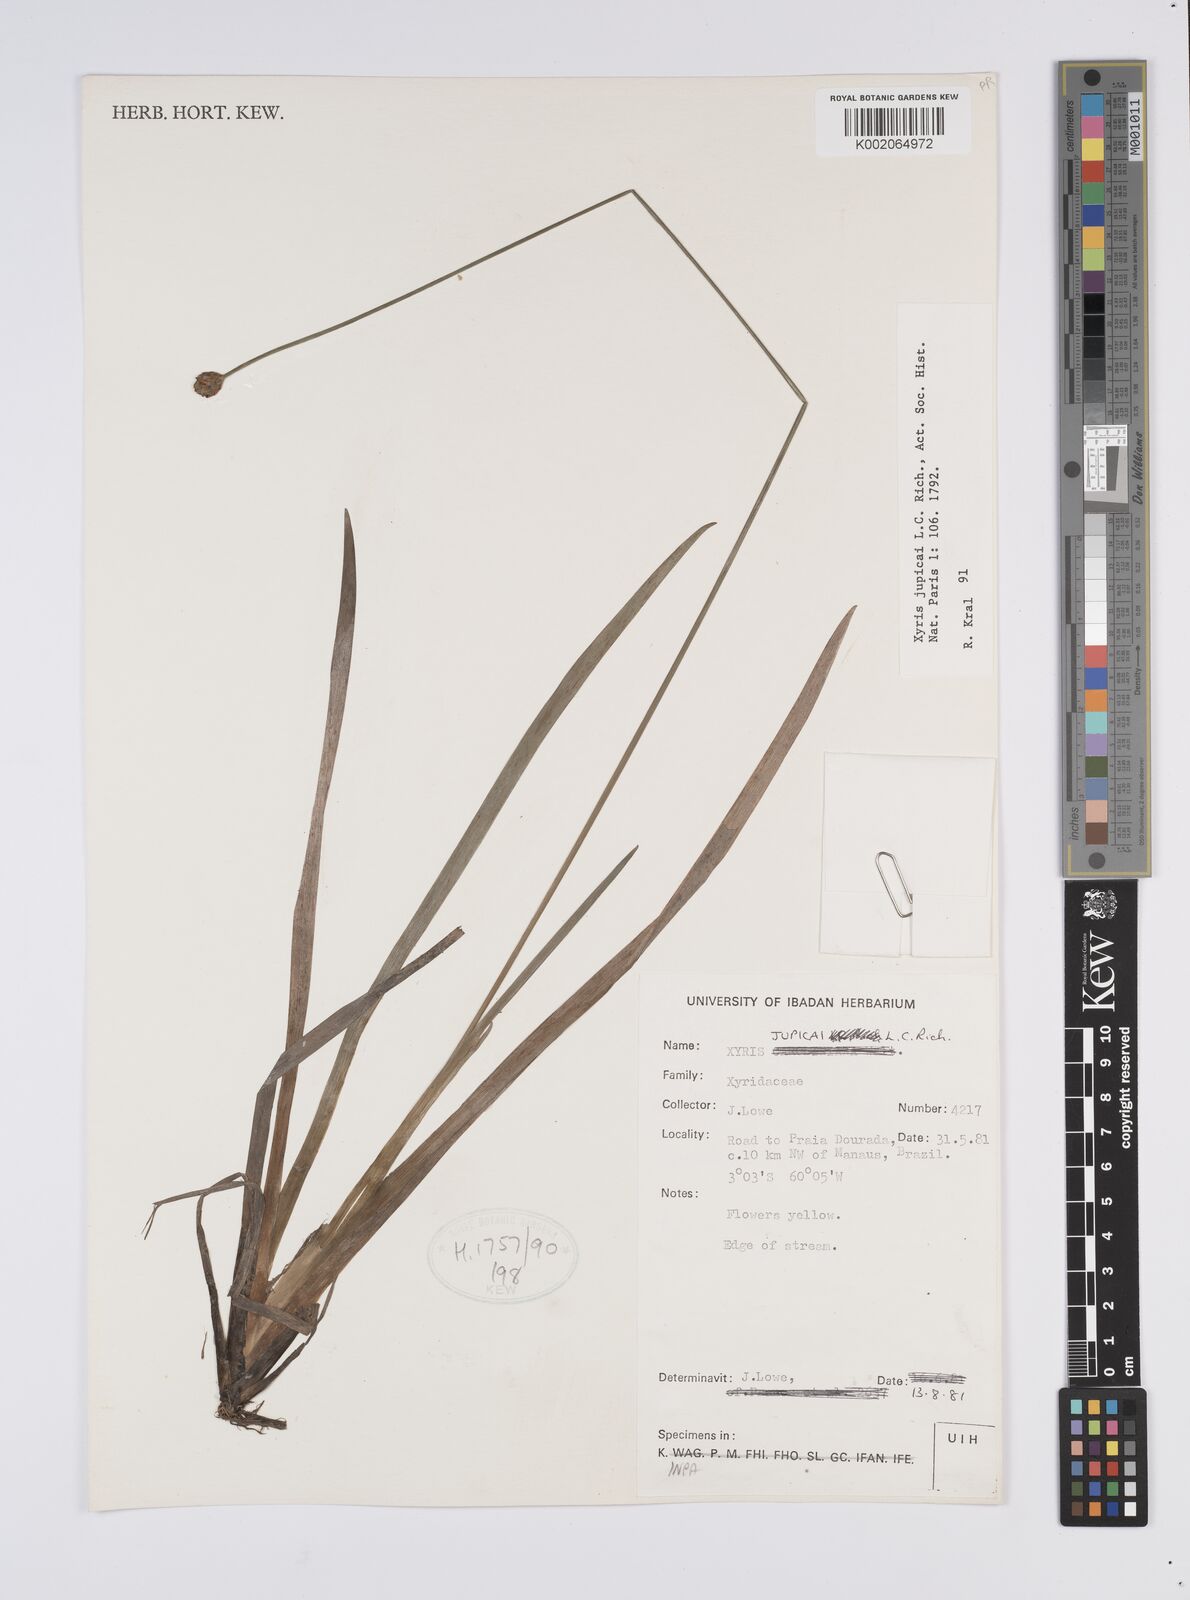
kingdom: Plantae
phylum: Tracheophyta
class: Liliopsida
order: Poales
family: Xyridaceae
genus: Xyris
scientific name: Xyris jupicai
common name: Richard's yelloweyed grass
